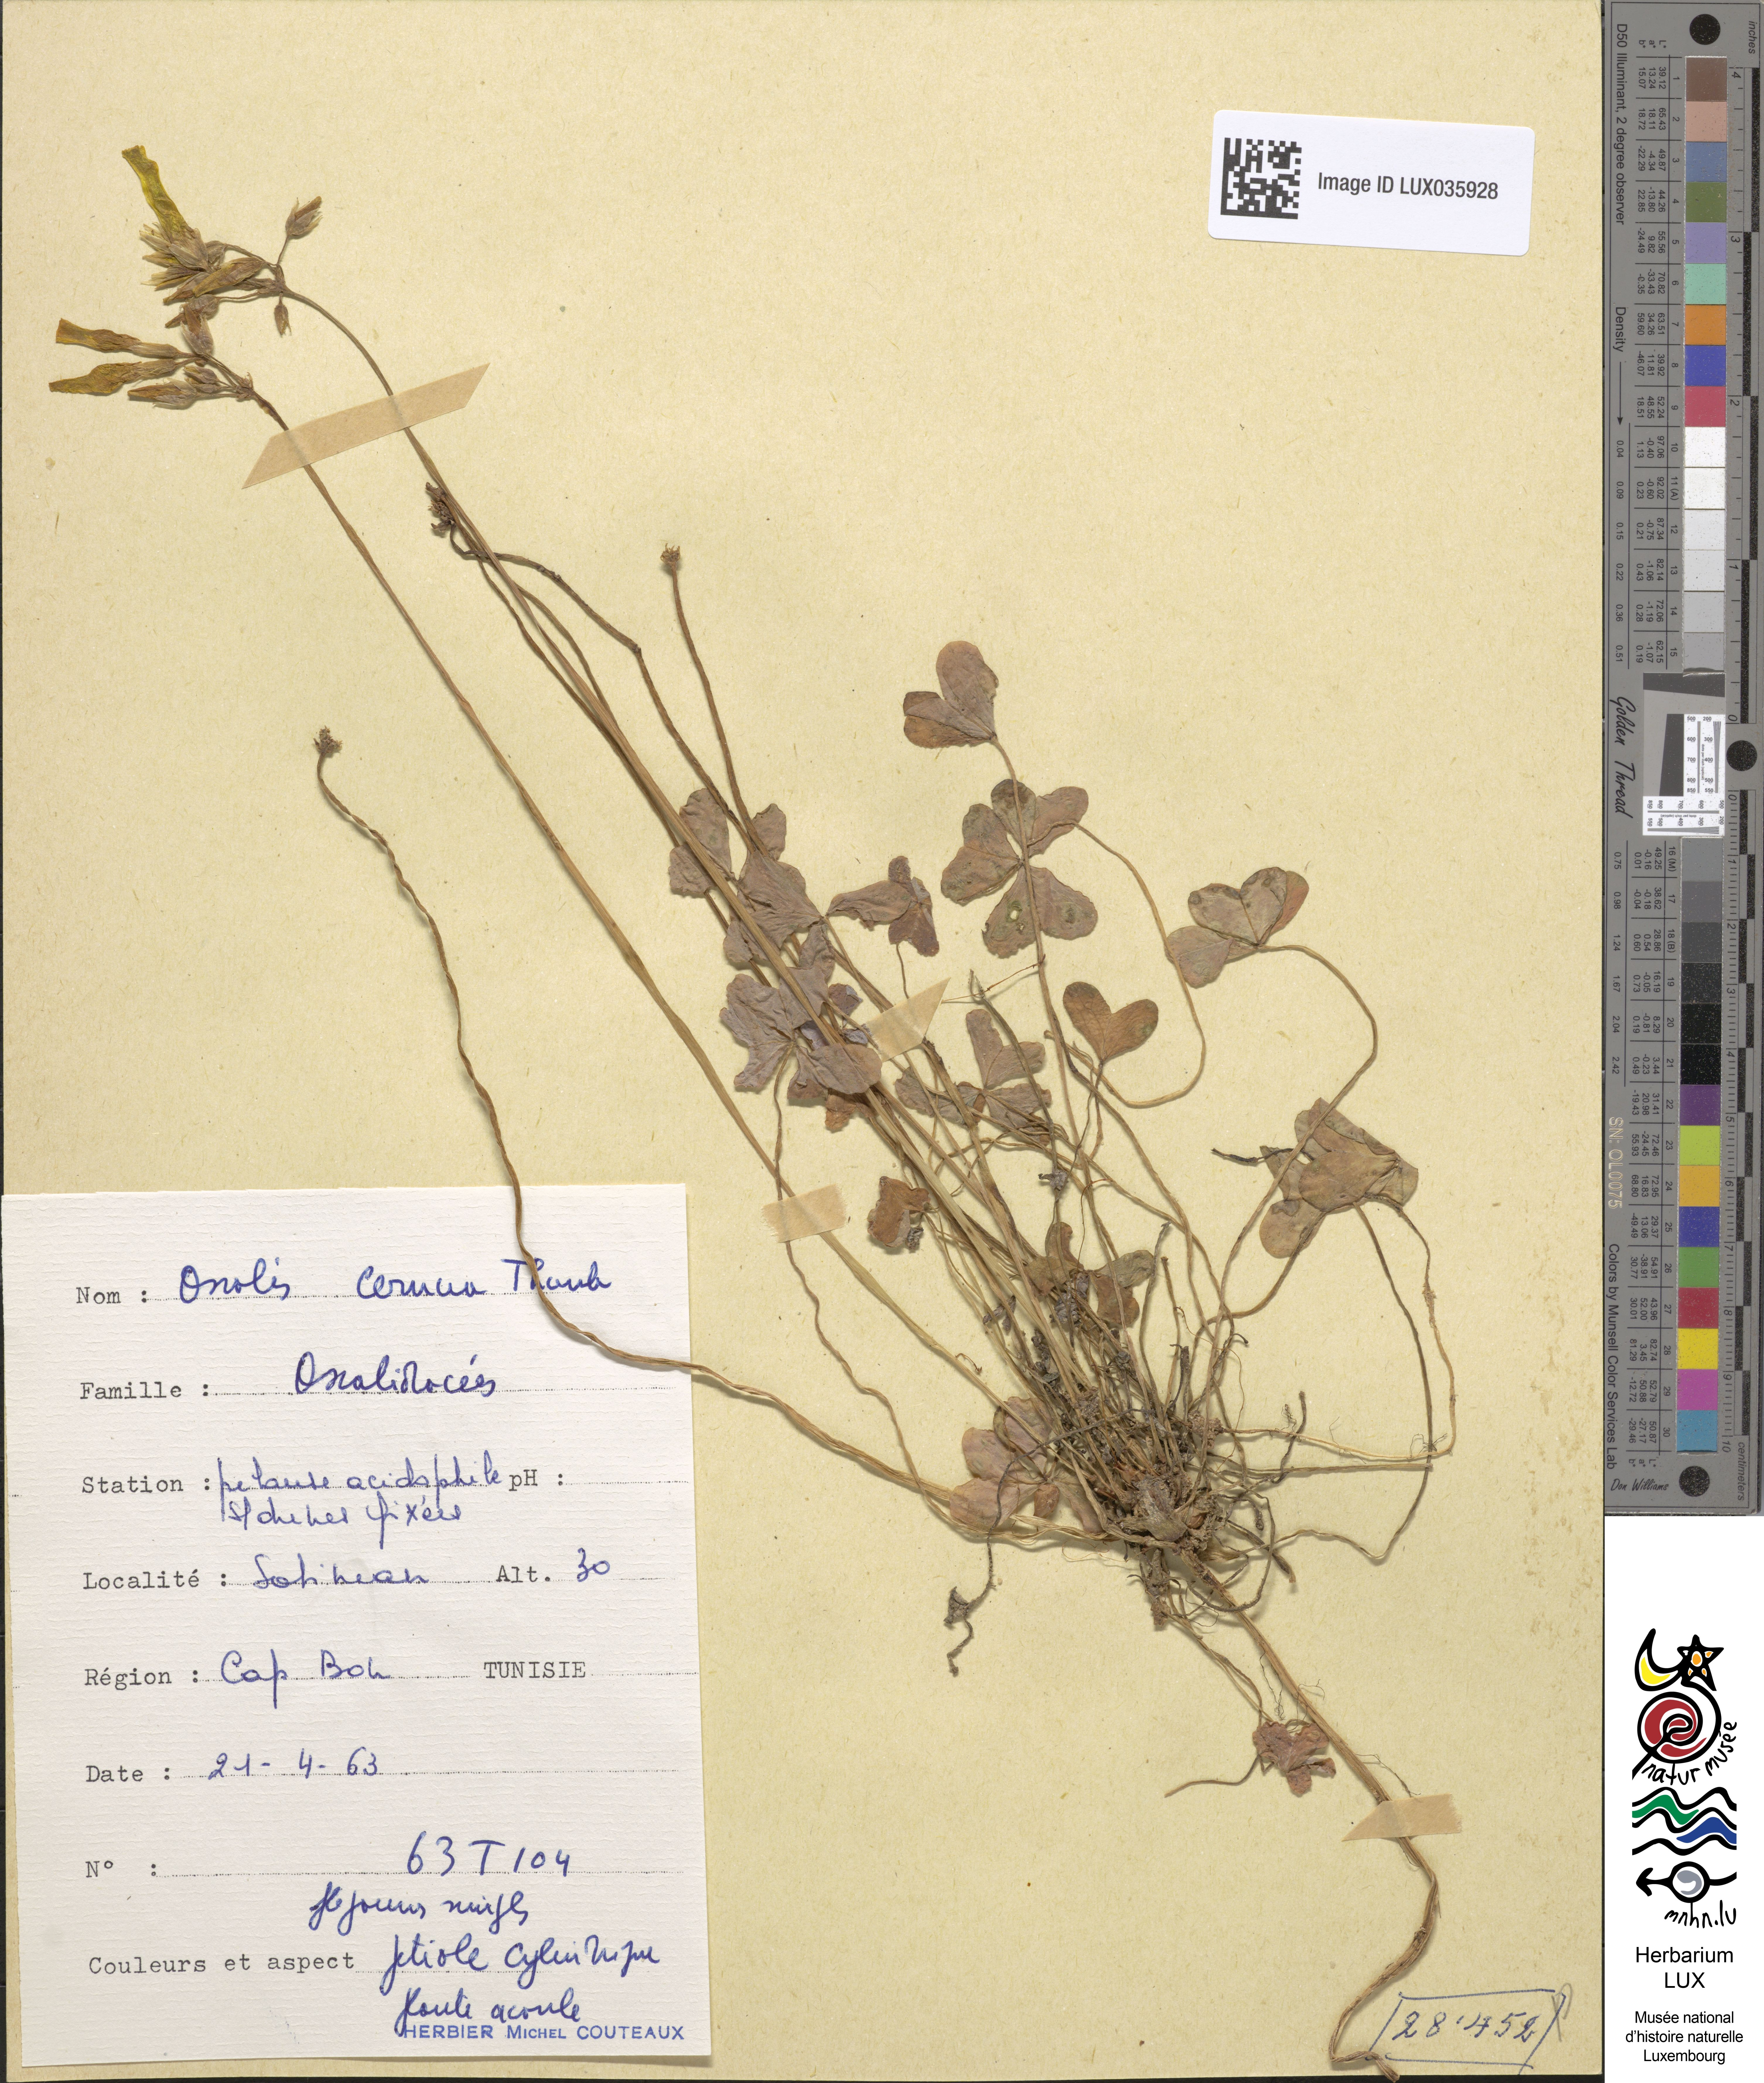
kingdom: Plantae
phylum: Tracheophyta
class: Magnoliopsida
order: Oxalidales
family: Oxalidaceae
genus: Oxalis
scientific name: Oxalis pes-caprae
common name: Bermuda-buttercup
